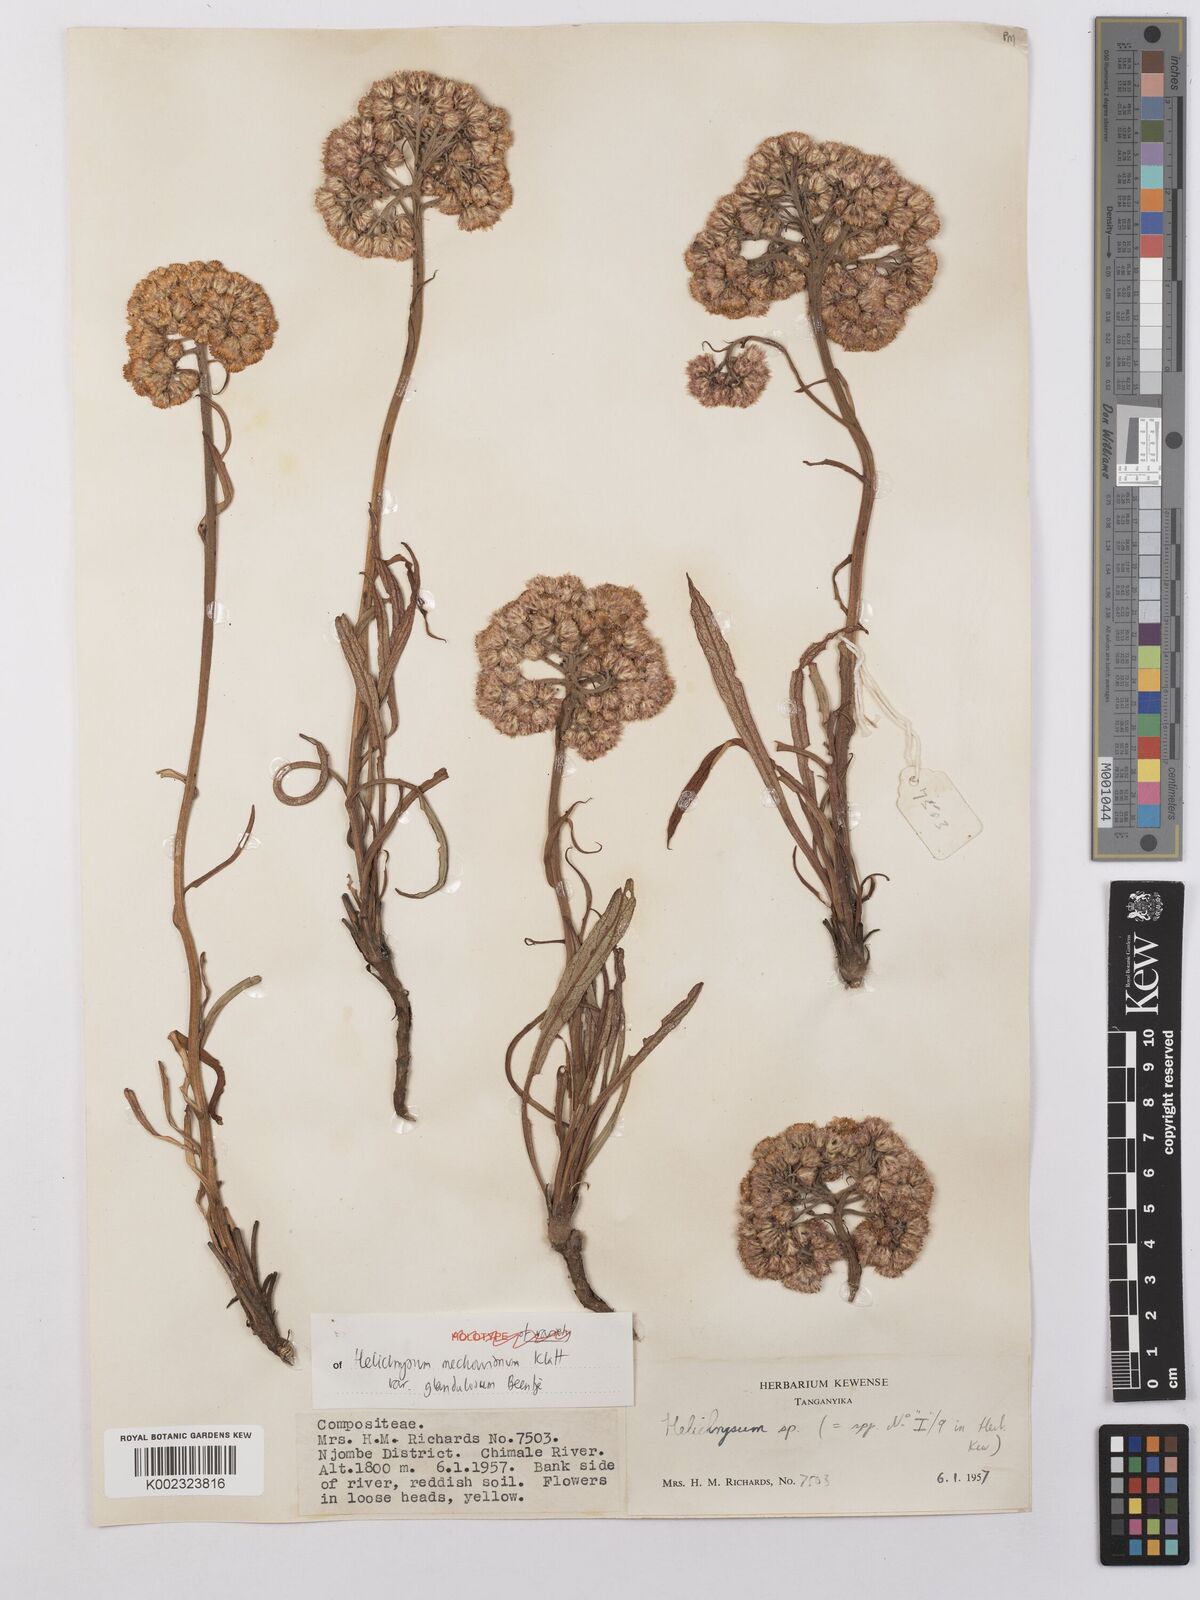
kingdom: Plantae
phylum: Tracheophyta
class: Magnoliopsida
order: Asterales
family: Asteraceae
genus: Helichrysum
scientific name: Helichrysum mechowianum
